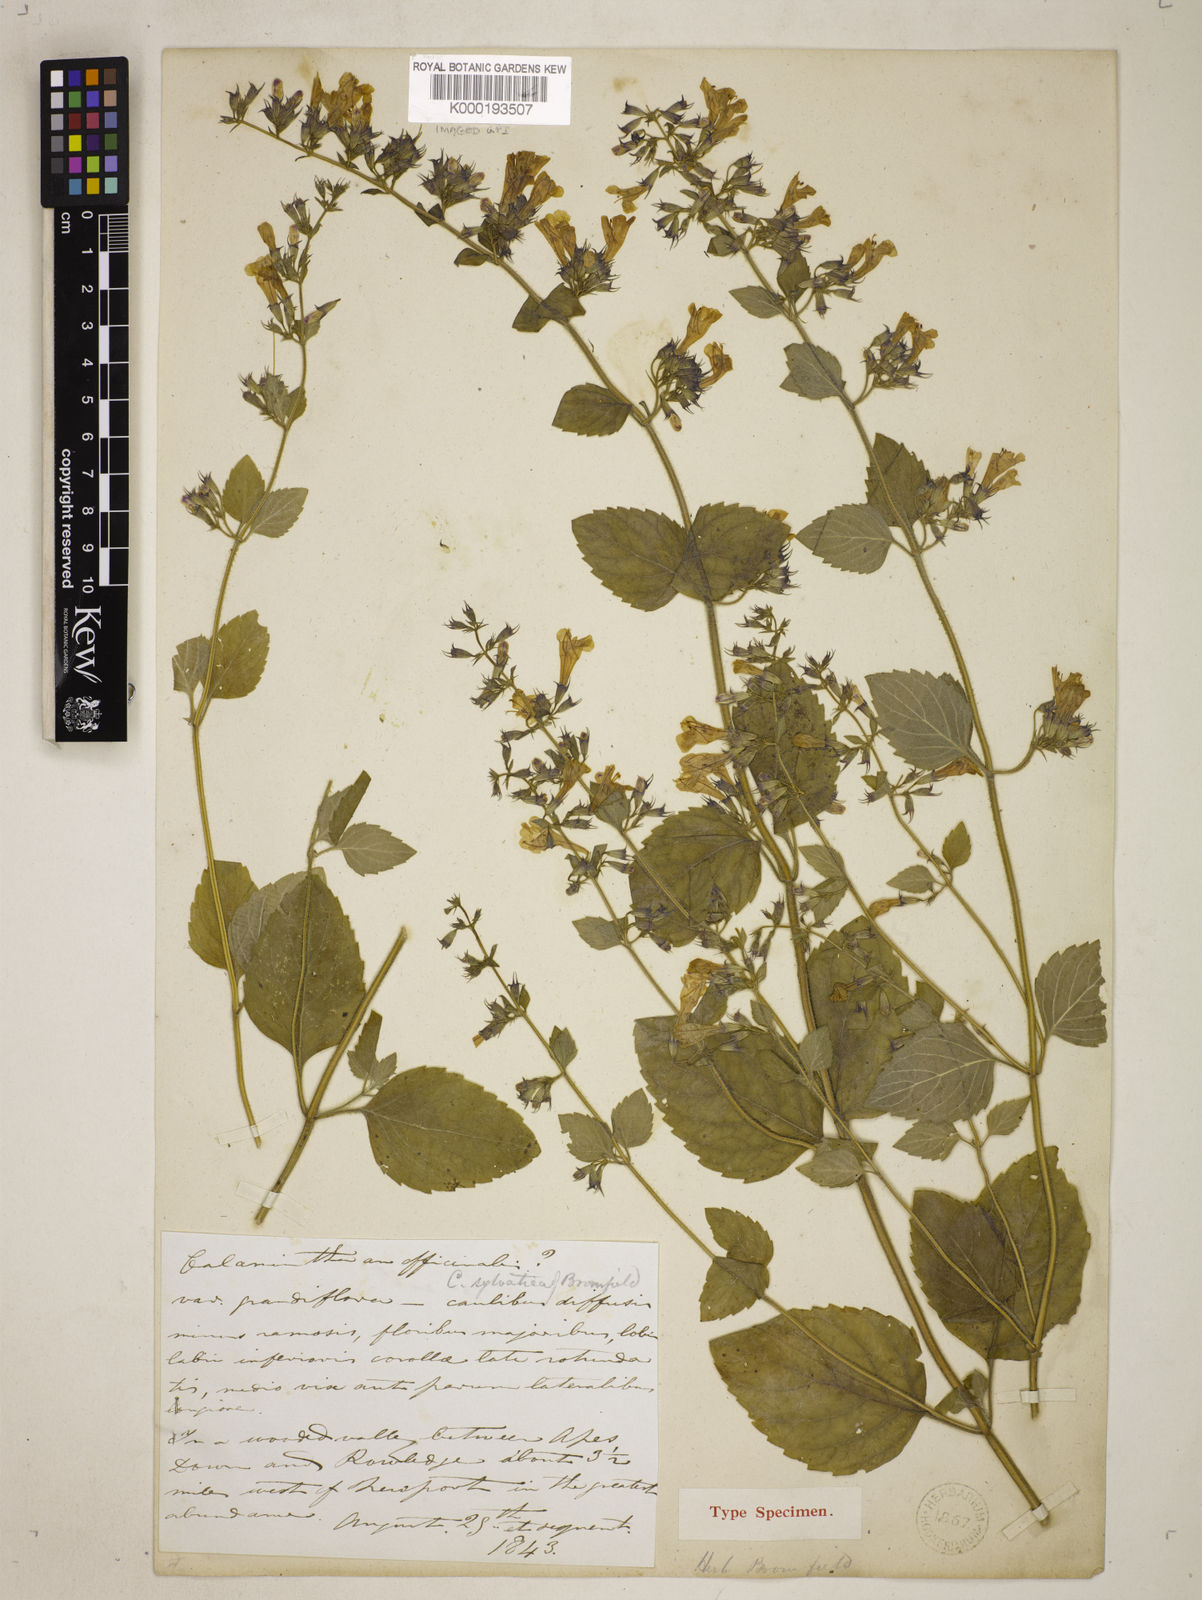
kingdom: Plantae
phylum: Tracheophyta
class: Magnoliopsida
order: Lamiales
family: Lamiaceae
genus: Clinopodium
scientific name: Clinopodium menthifolium
